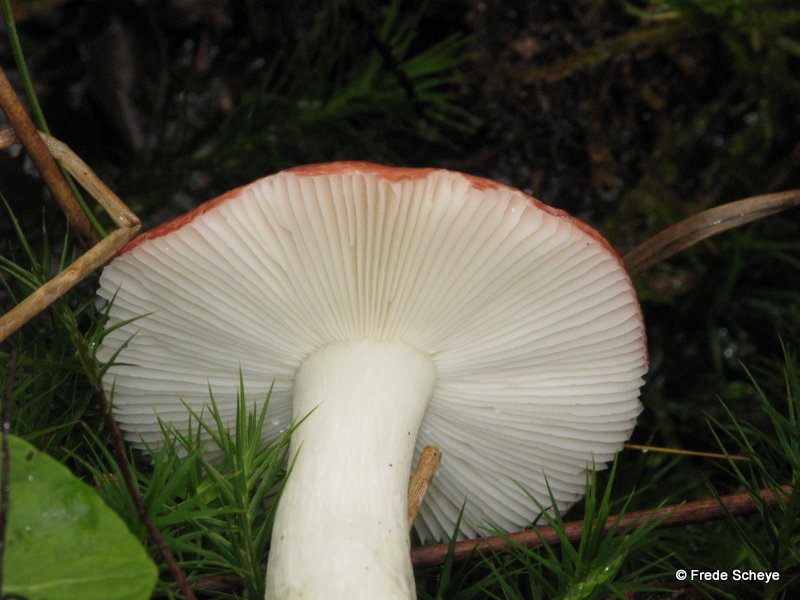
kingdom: Fungi
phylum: Basidiomycota
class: Agaricomycetes
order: Russulales
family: Russulaceae
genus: Russula
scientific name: Russula fragilis
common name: Fragile brittlegill
